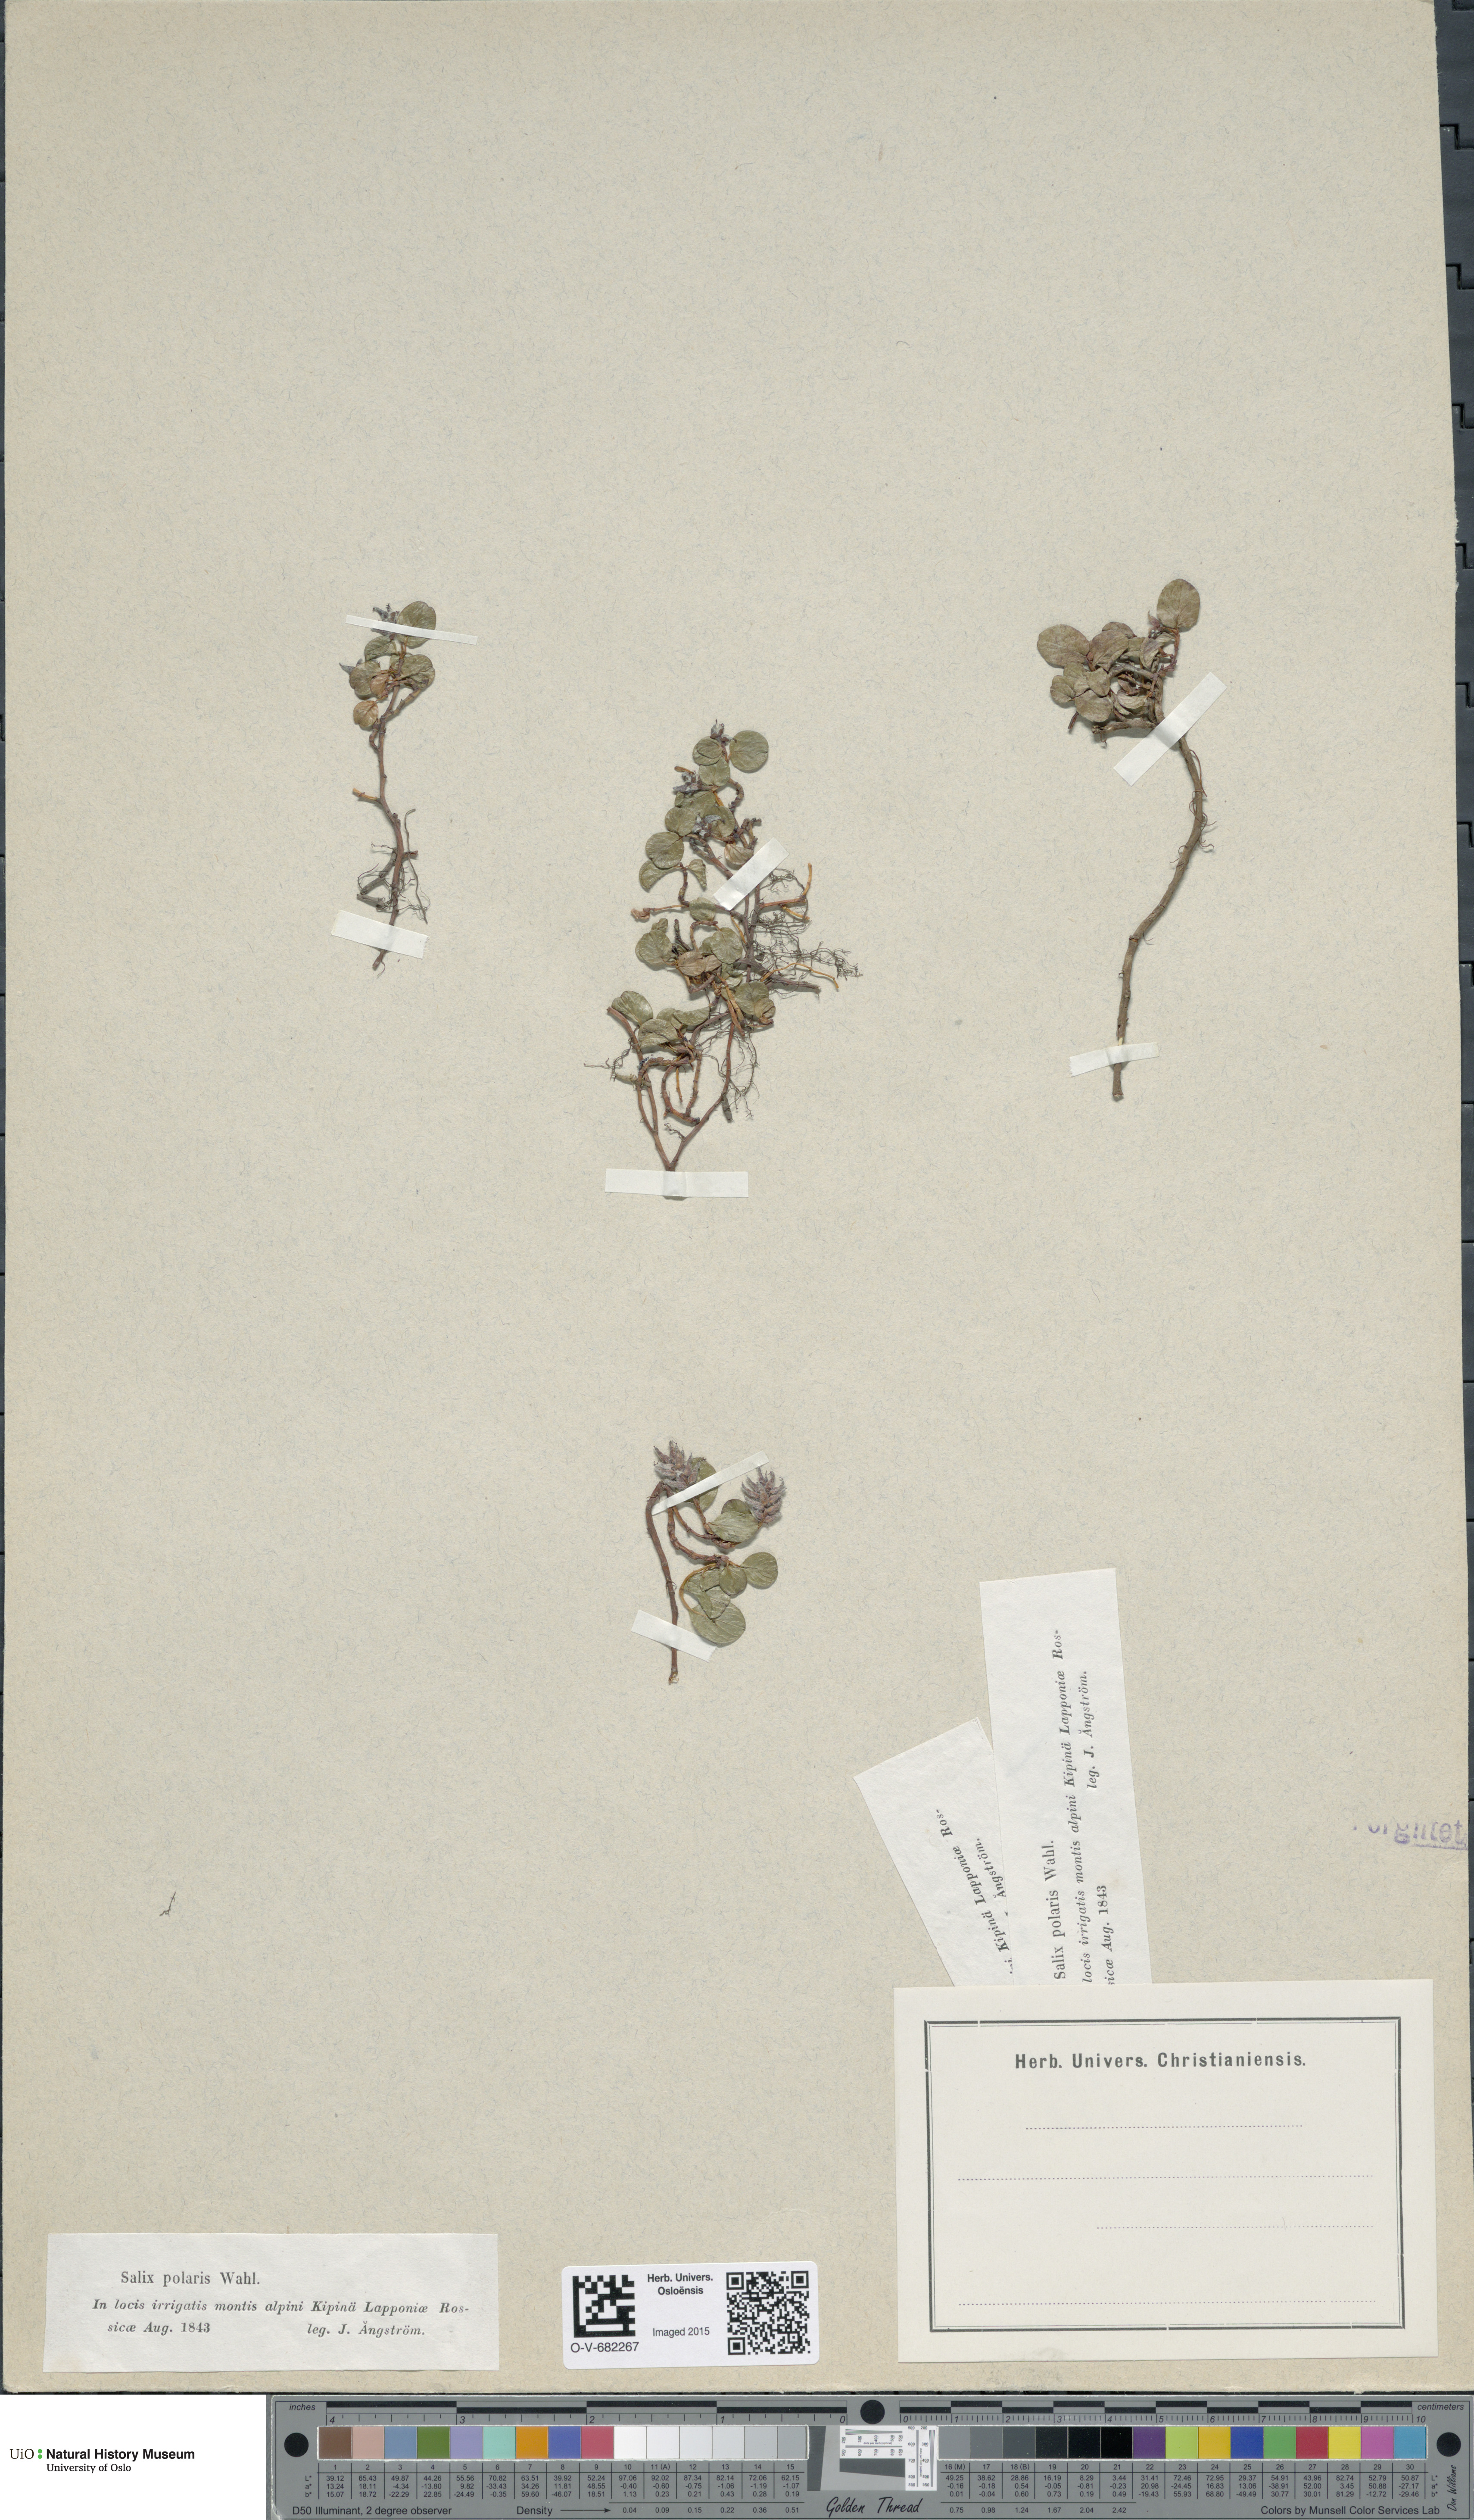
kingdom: Plantae
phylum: Tracheophyta
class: Magnoliopsida
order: Malpighiales
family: Salicaceae
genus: Salix
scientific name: Salix polaris
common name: Polar willow
